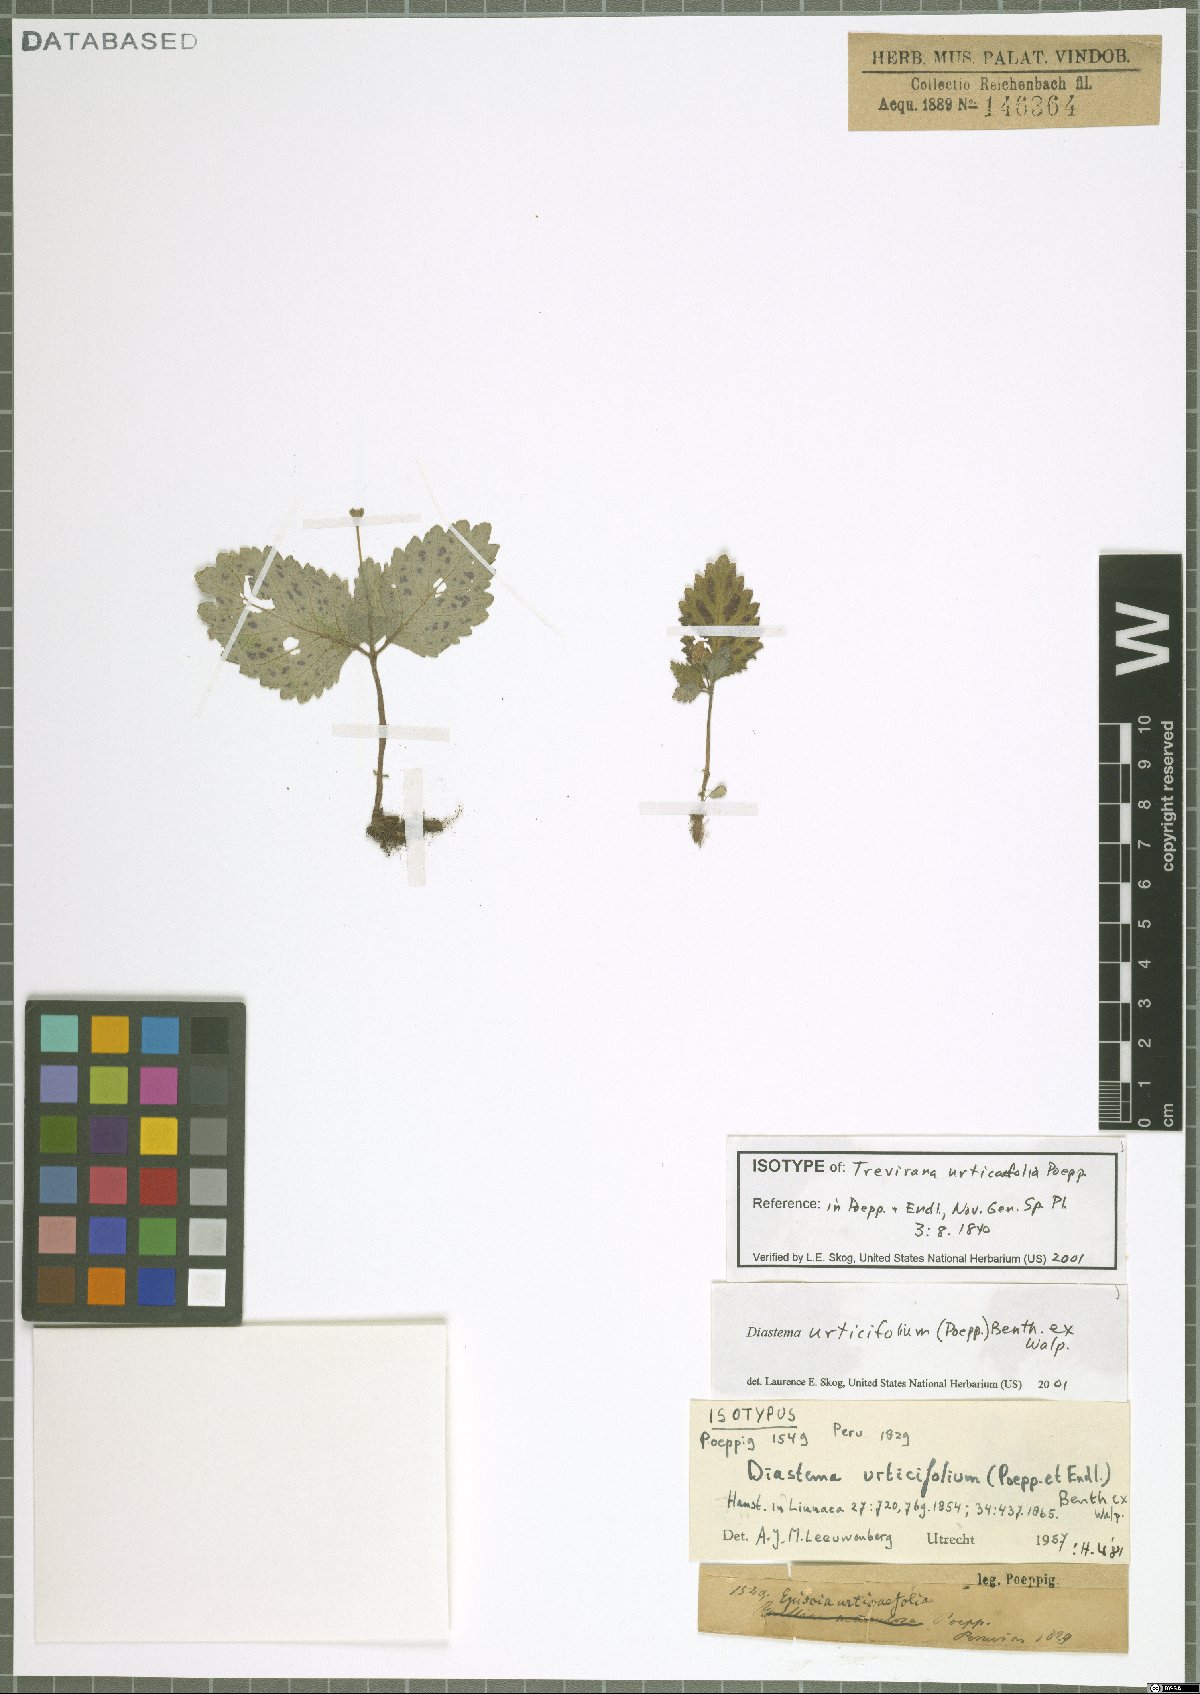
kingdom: Plantae
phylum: Tracheophyta
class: Magnoliopsida
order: Lamiales
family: Gesneriaceae
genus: Diastema
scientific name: Diastema urticifolium
